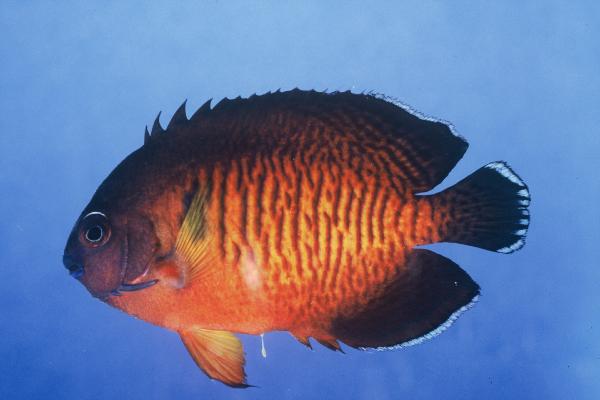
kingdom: Animalia
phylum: Chordata
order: Perciformes
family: Pomacanthidae
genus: Centropyge
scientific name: Centropyge bispinosa
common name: Coral beauty
